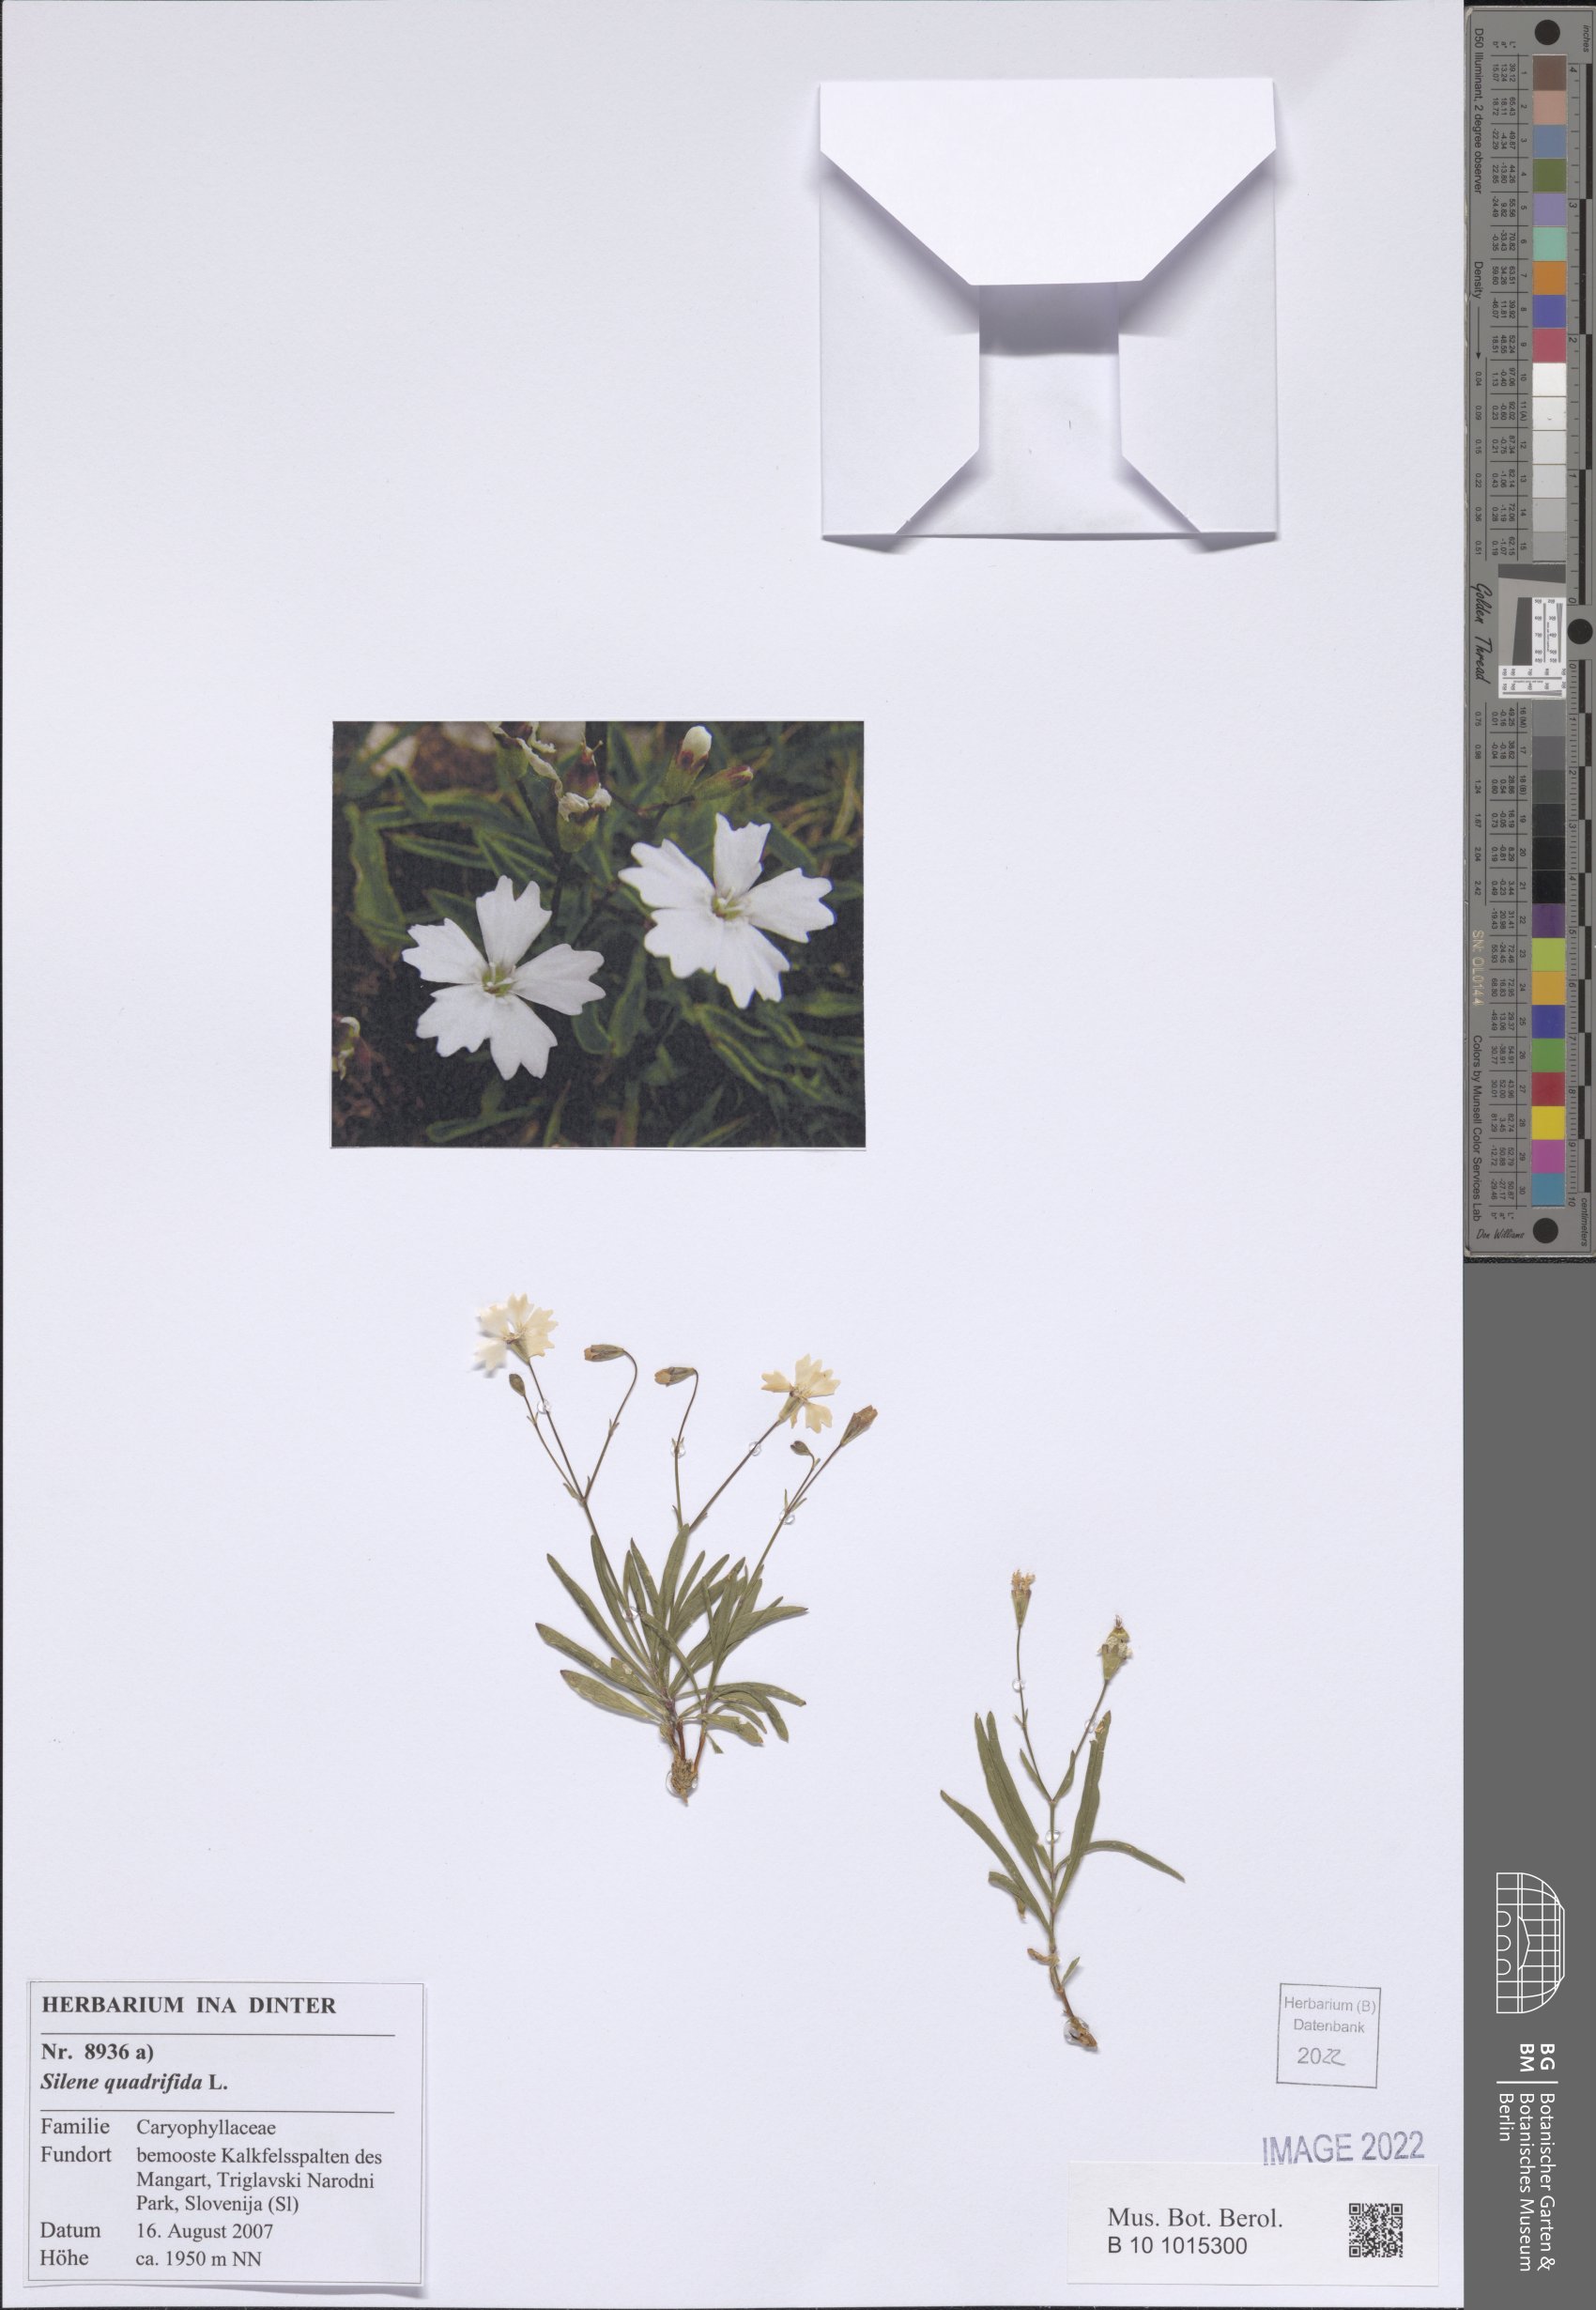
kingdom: Plantae
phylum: Tracheophyta
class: Magnoliopsida
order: Caryophyllales
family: Caryophyllaceae
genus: Heliosperma
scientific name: Heliosperma alpestre
